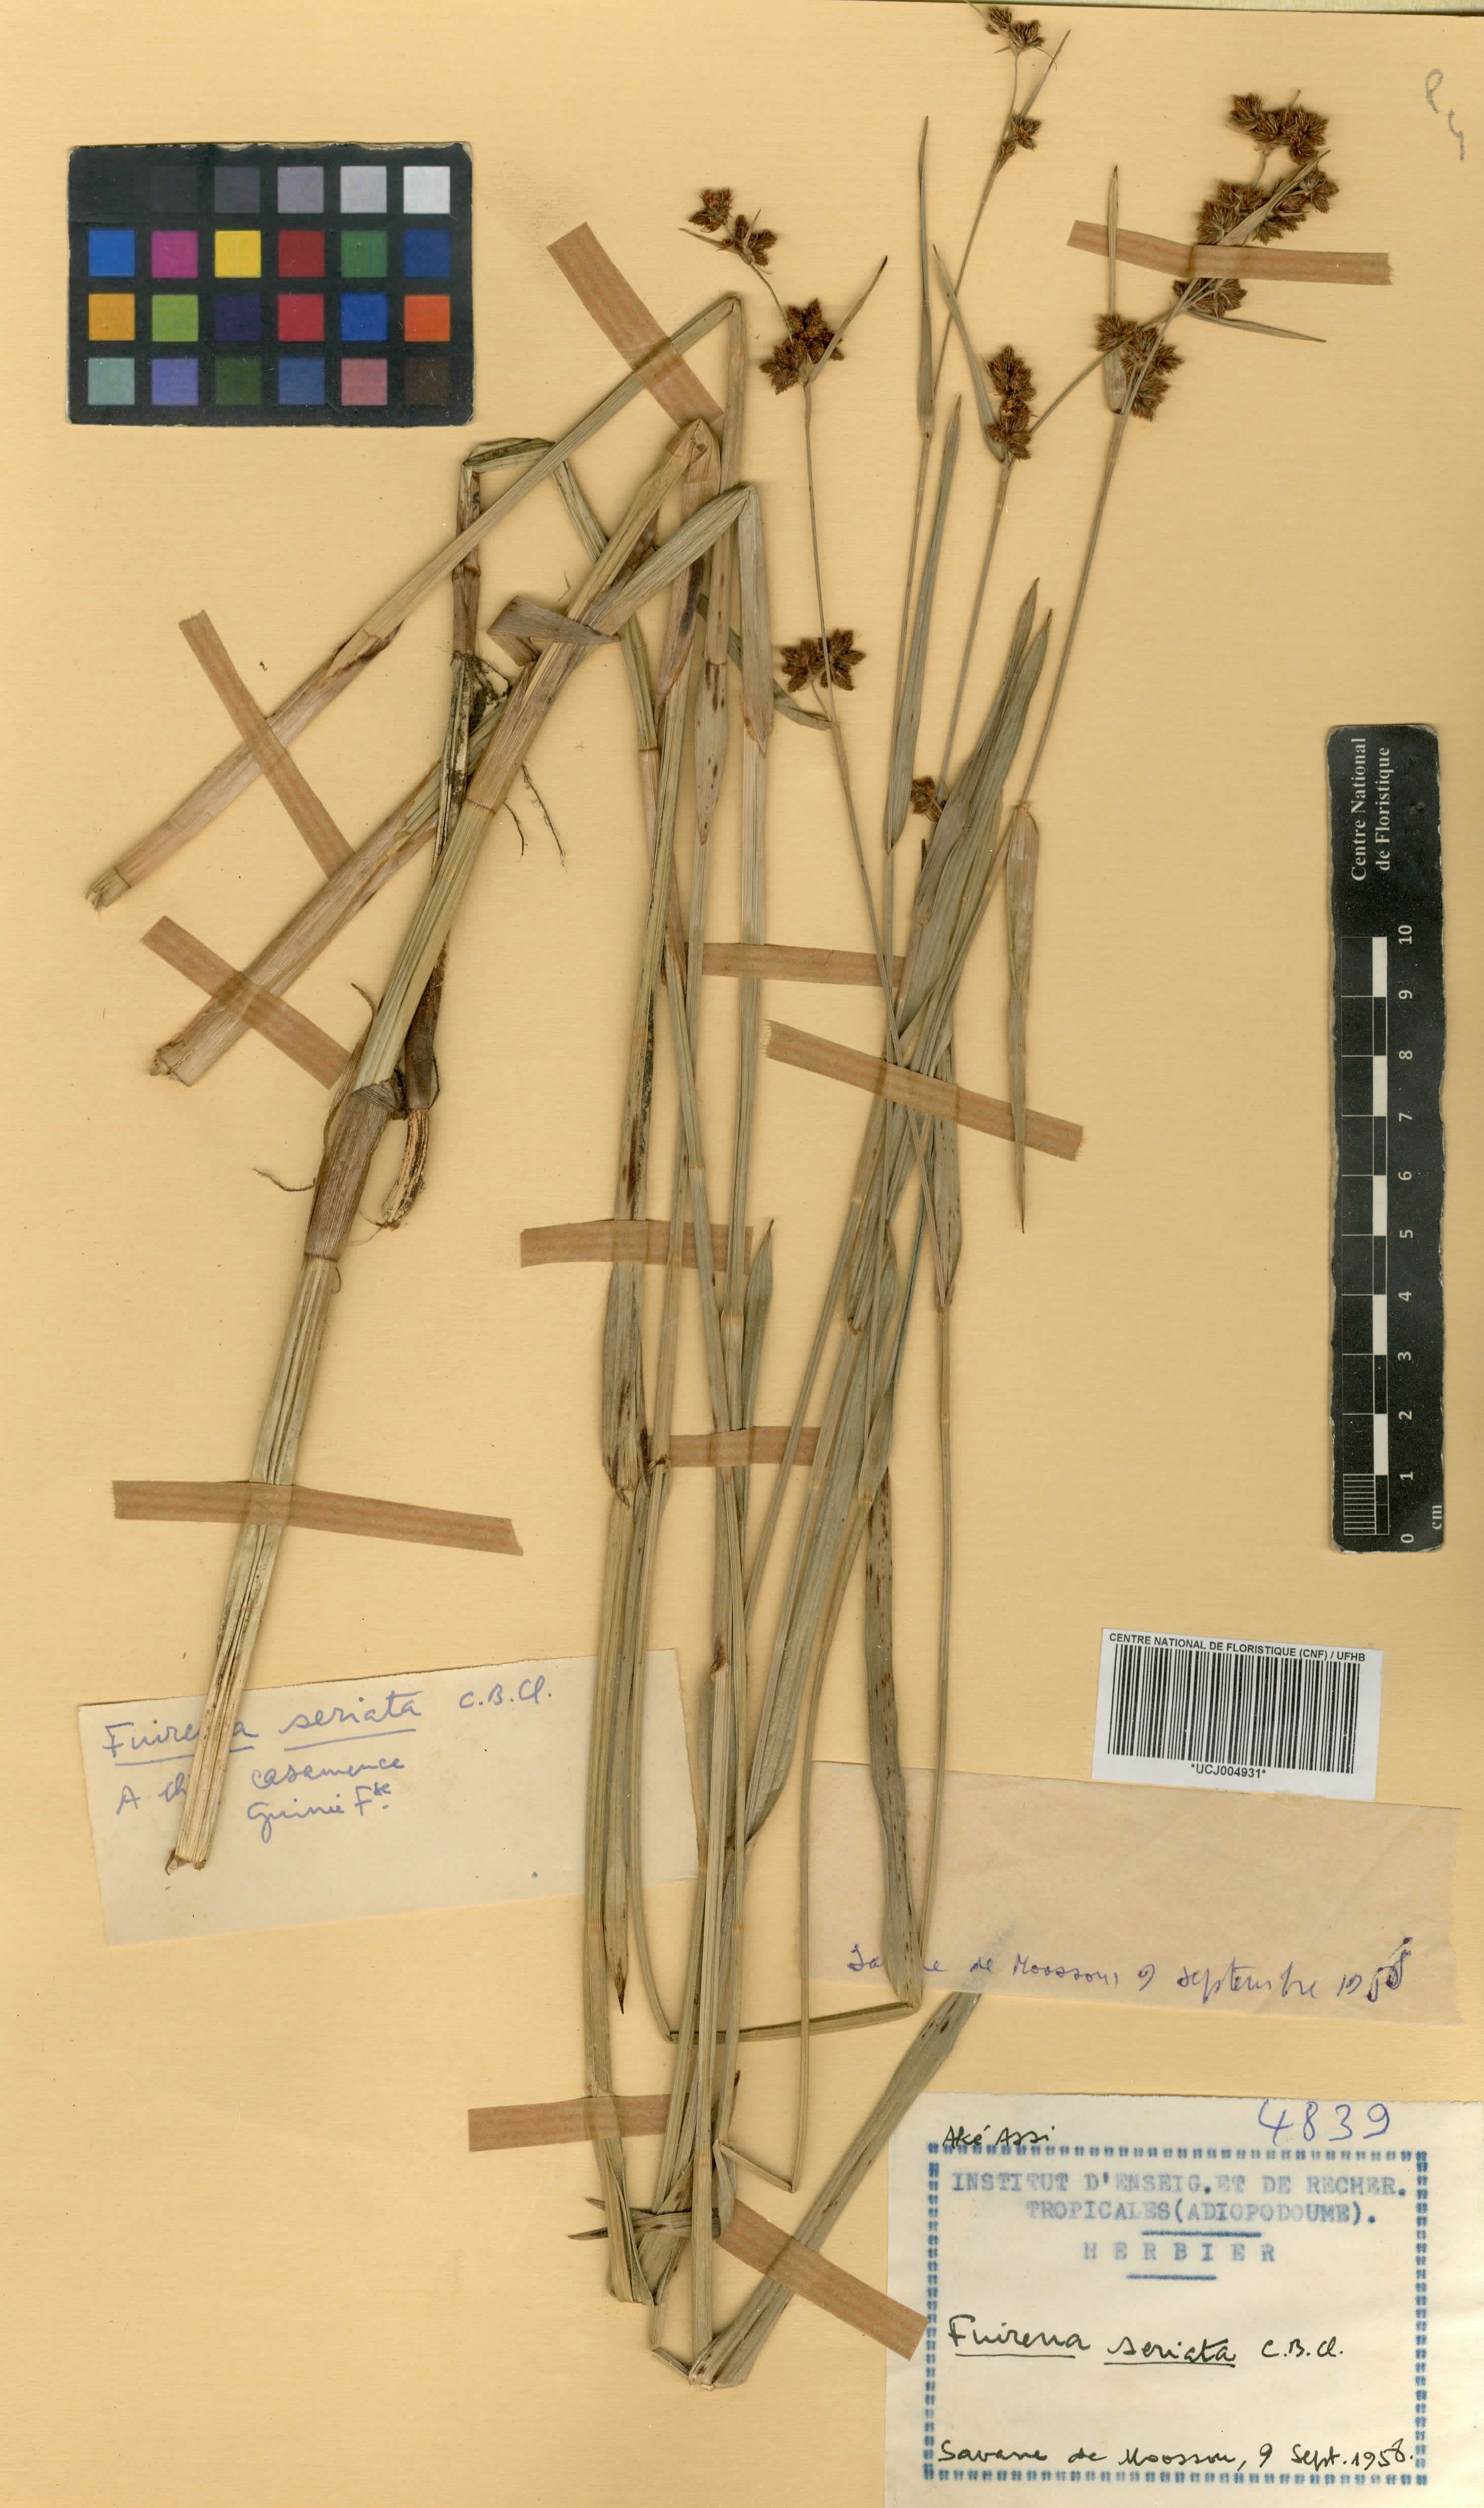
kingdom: Plantae
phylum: Tracheophyta
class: Liliopsida
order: Poales
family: Cyperaceae
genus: Fuirena
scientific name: Fuirena umbellata
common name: Yefen
